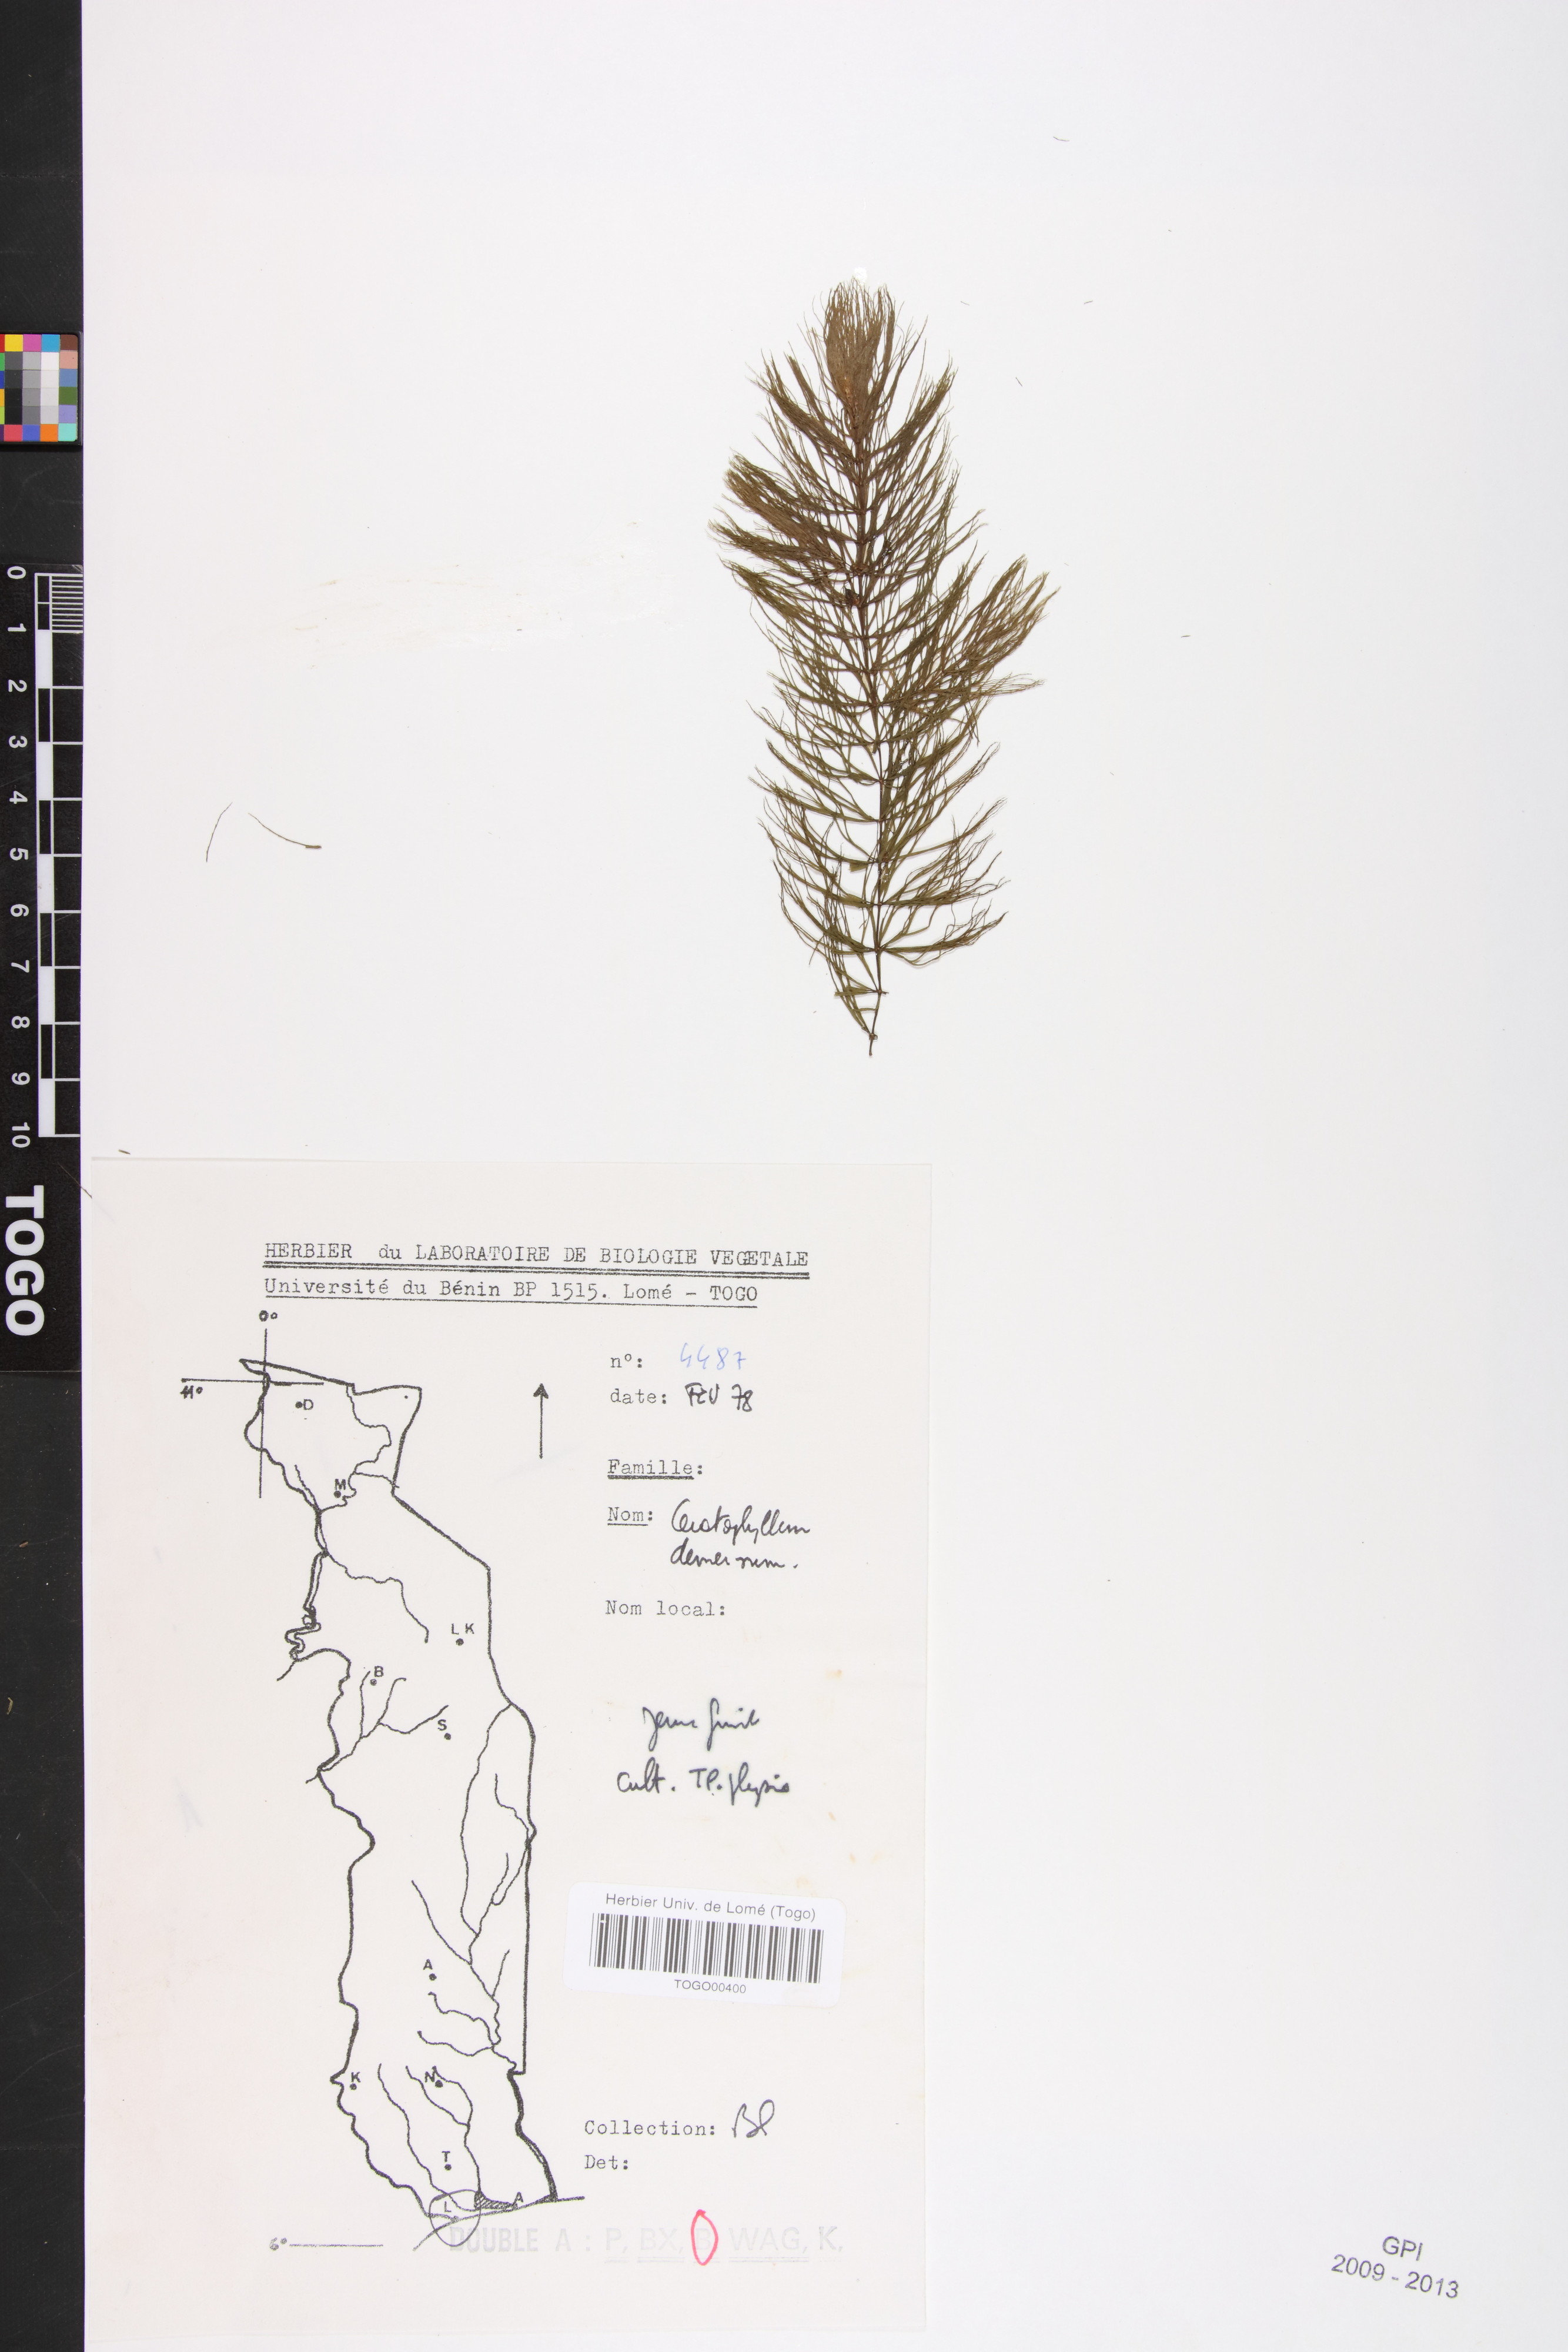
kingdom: Plantae
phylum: Tracheophyta
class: Magnoliopsida
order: Ceratophyllales
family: Ceratophyllaceae
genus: Ceratophyllum
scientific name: Ceratophyllum demersum
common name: Rigid hornwort
